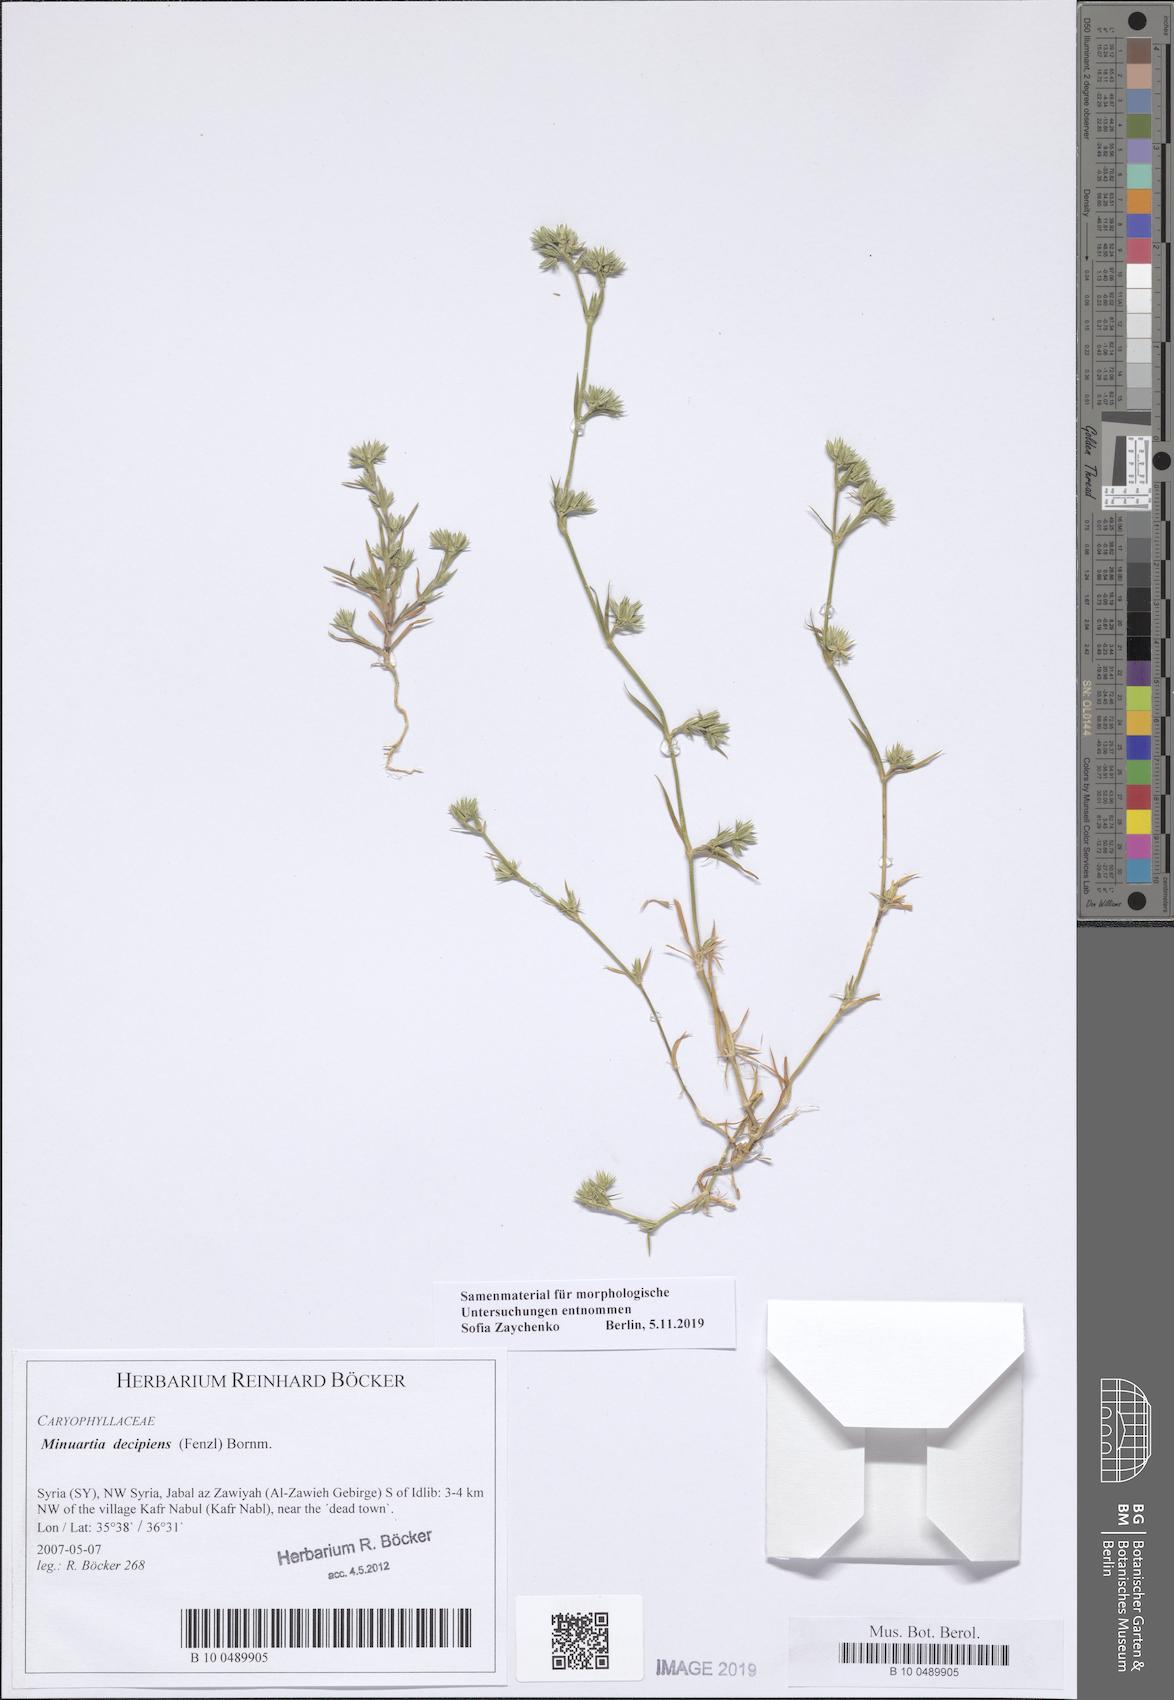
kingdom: Plantae
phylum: Tracheophyta
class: Magnoliopsida
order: Caryophyllales
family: Caryophyllaceae
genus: Minuartia
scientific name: Minuartia decipiens
